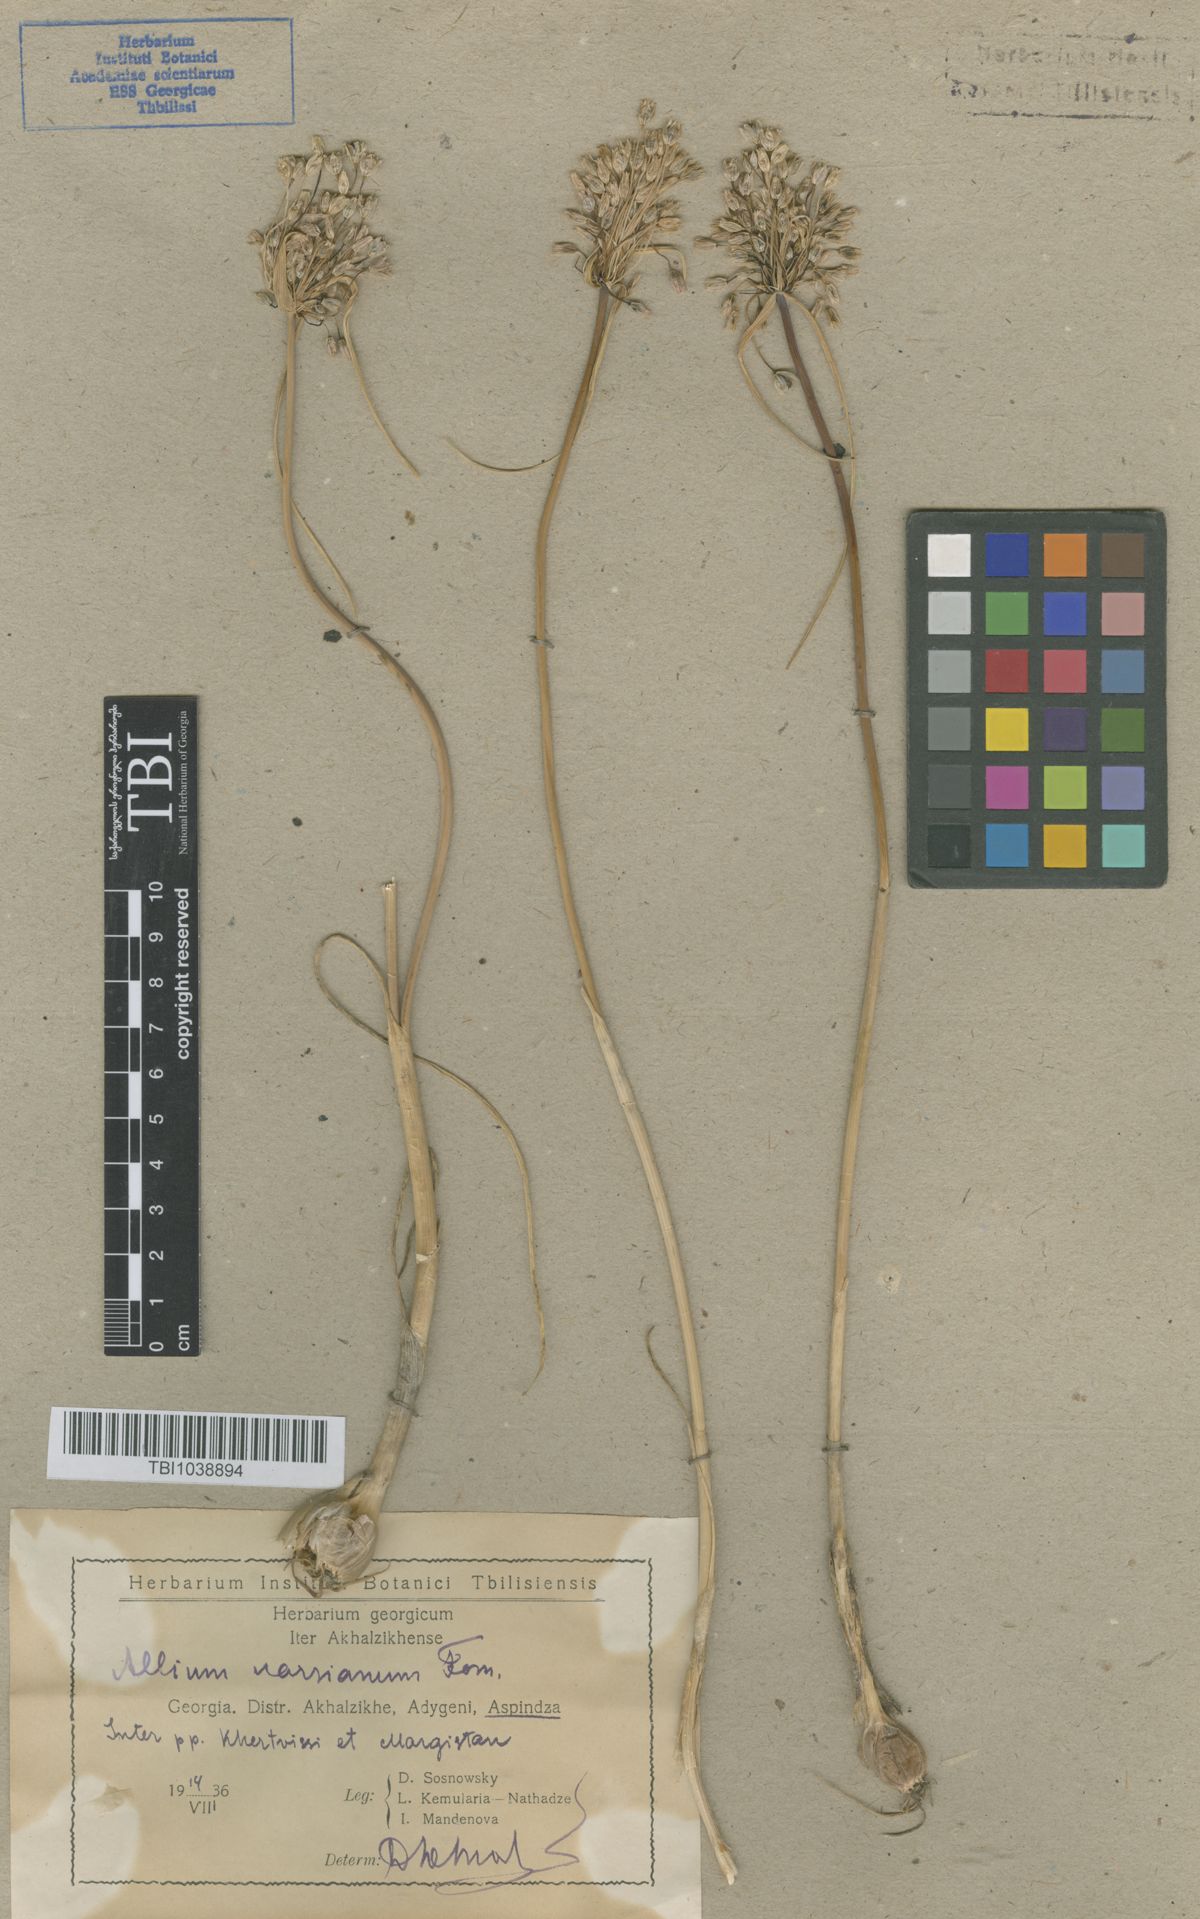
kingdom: Plantae
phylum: Tracheophyta
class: Liliopsida
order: Asparagales
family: Amaryllidaceae
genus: Allium
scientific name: Allium paniculatum
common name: Pale garlic
